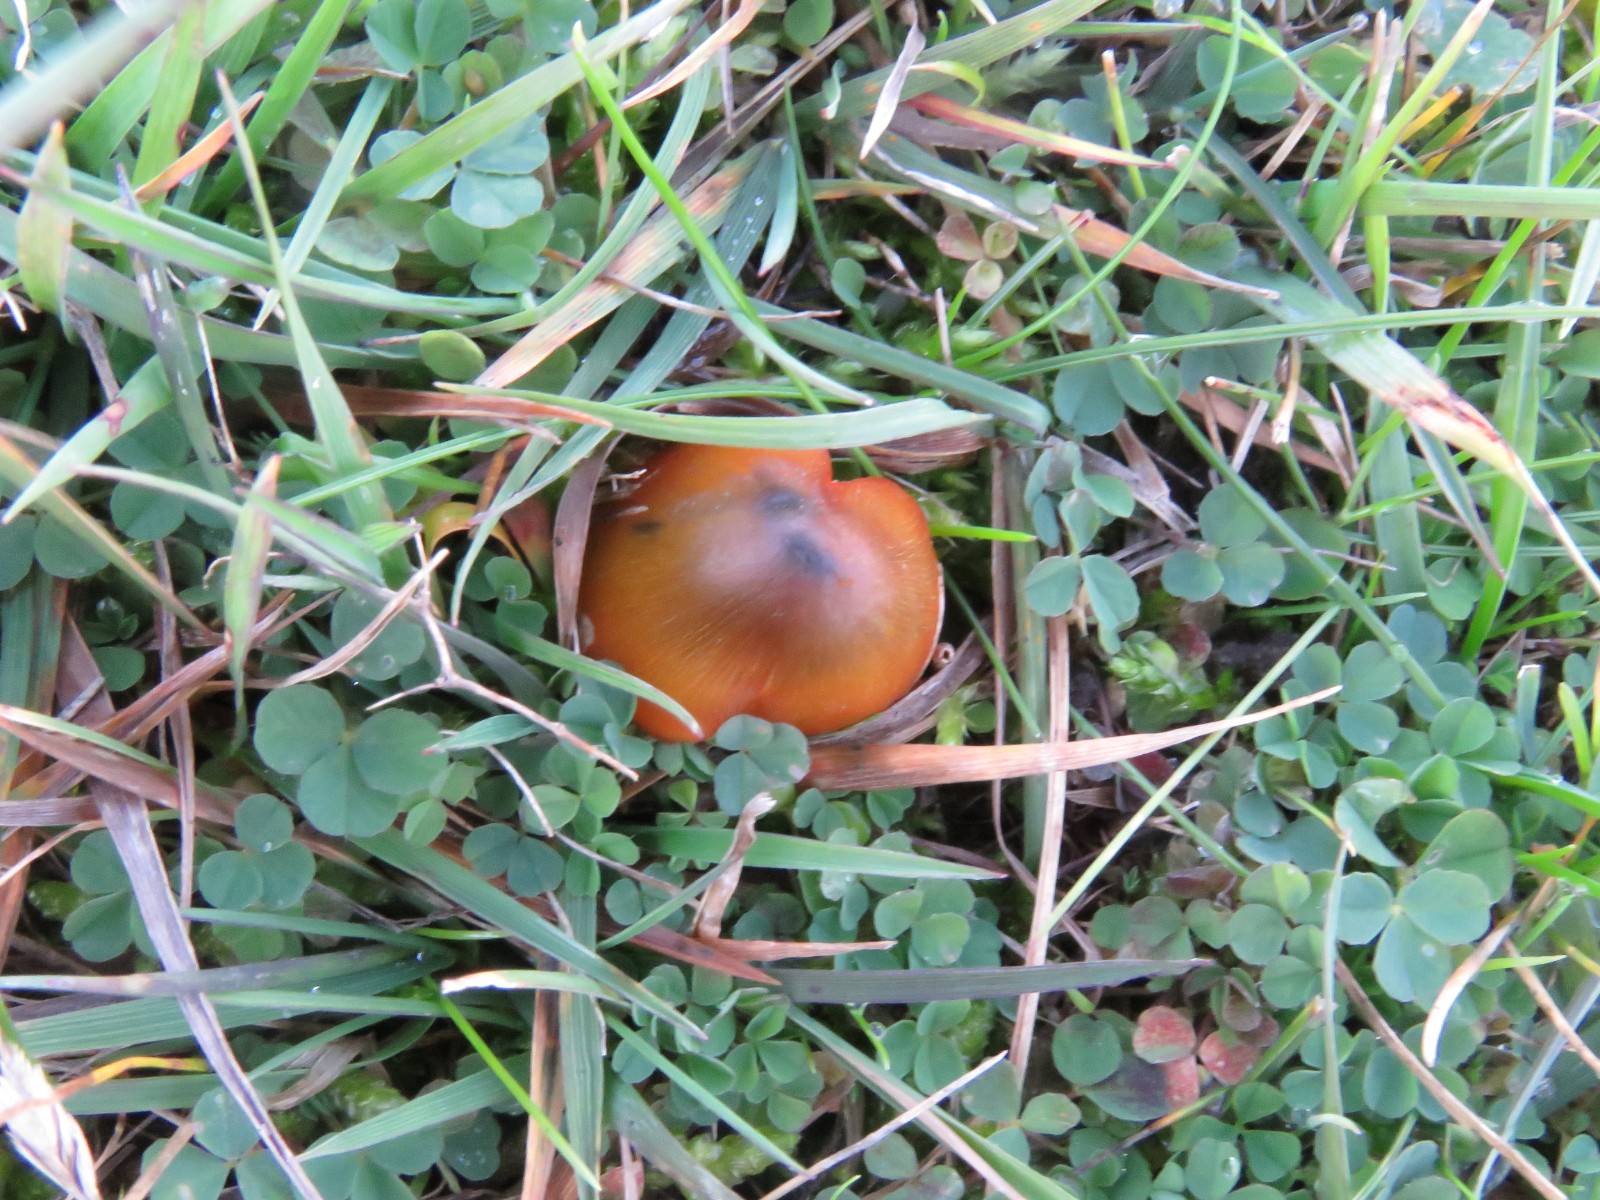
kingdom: Fungi
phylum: Basidiomycota
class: Agaricomycetes
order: Agaricales
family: Hygrophoraceae
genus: Hygrocybe
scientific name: Hygrocybe conica
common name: kegle-vokshat
